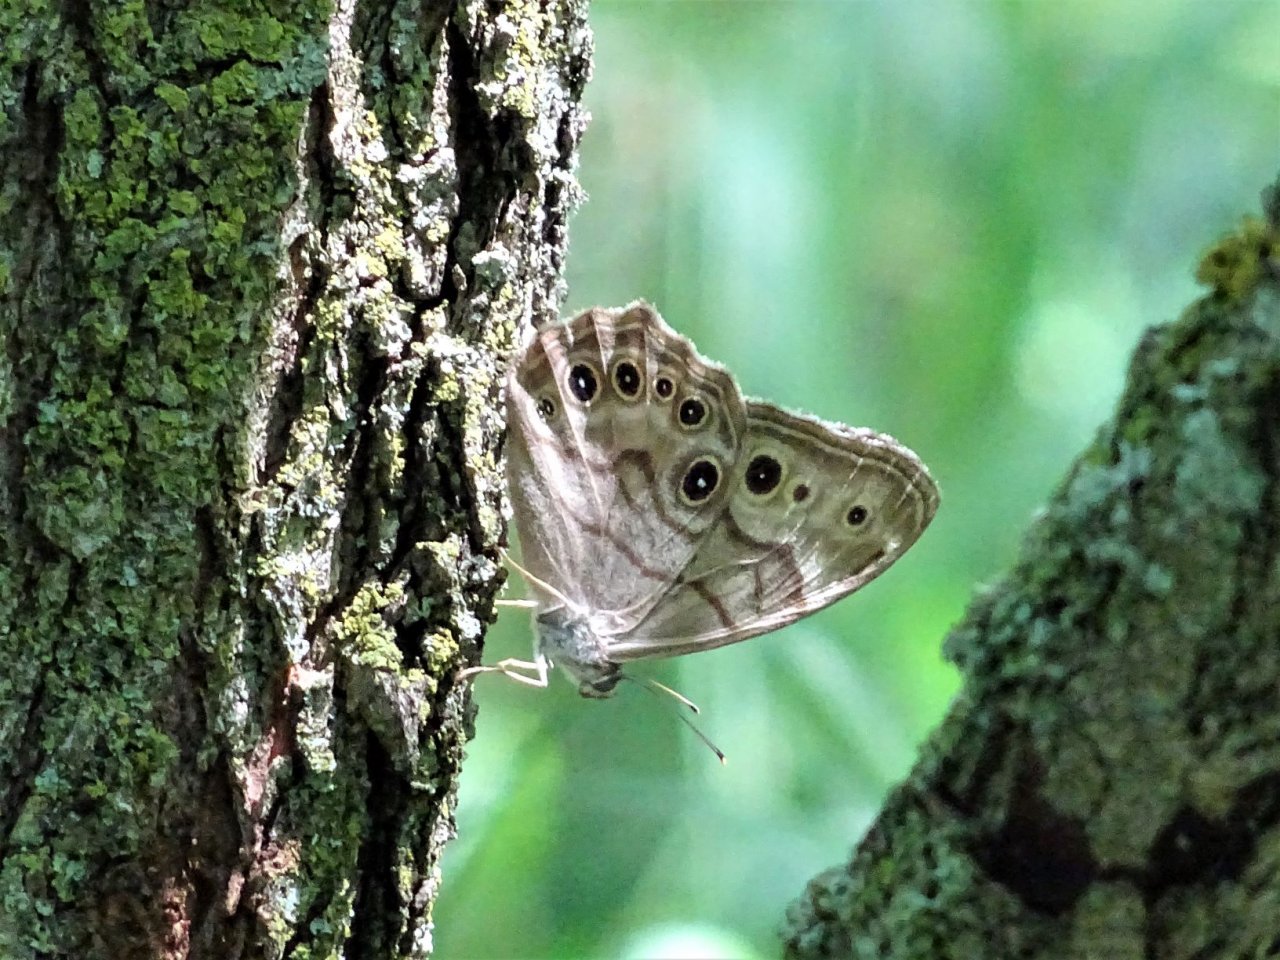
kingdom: Animalia
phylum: Arthropoda
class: Insecta
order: Lepidoptera
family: Nymphalidae
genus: Lethe
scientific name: Lethe anthedon
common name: Northern Pearly-Eye
